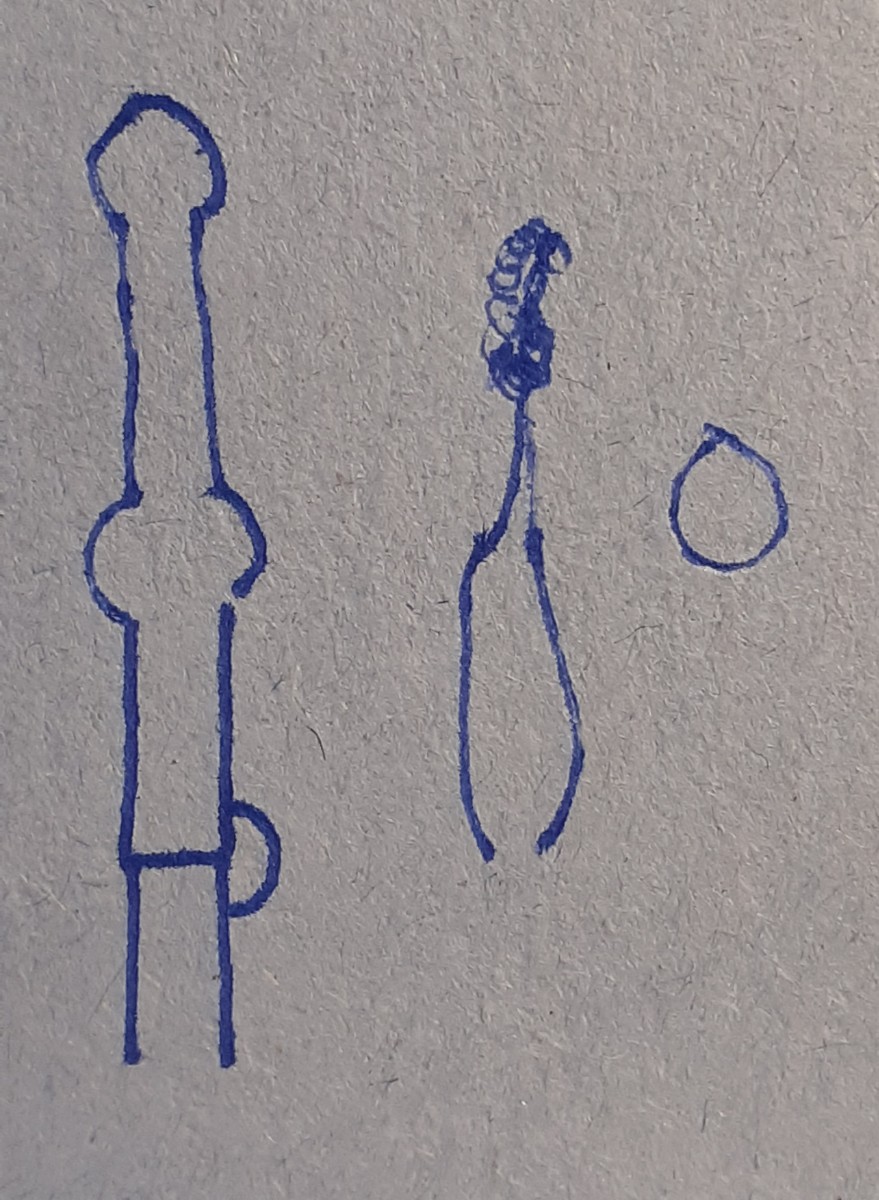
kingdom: Fungi
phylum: Basidiomycota
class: Agaricomycetes
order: Hymenochaetales
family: Hyphodontiaceae
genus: Hyphodontia
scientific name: Hyphodontia alutaria
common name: flaskerenser-nålehinde
